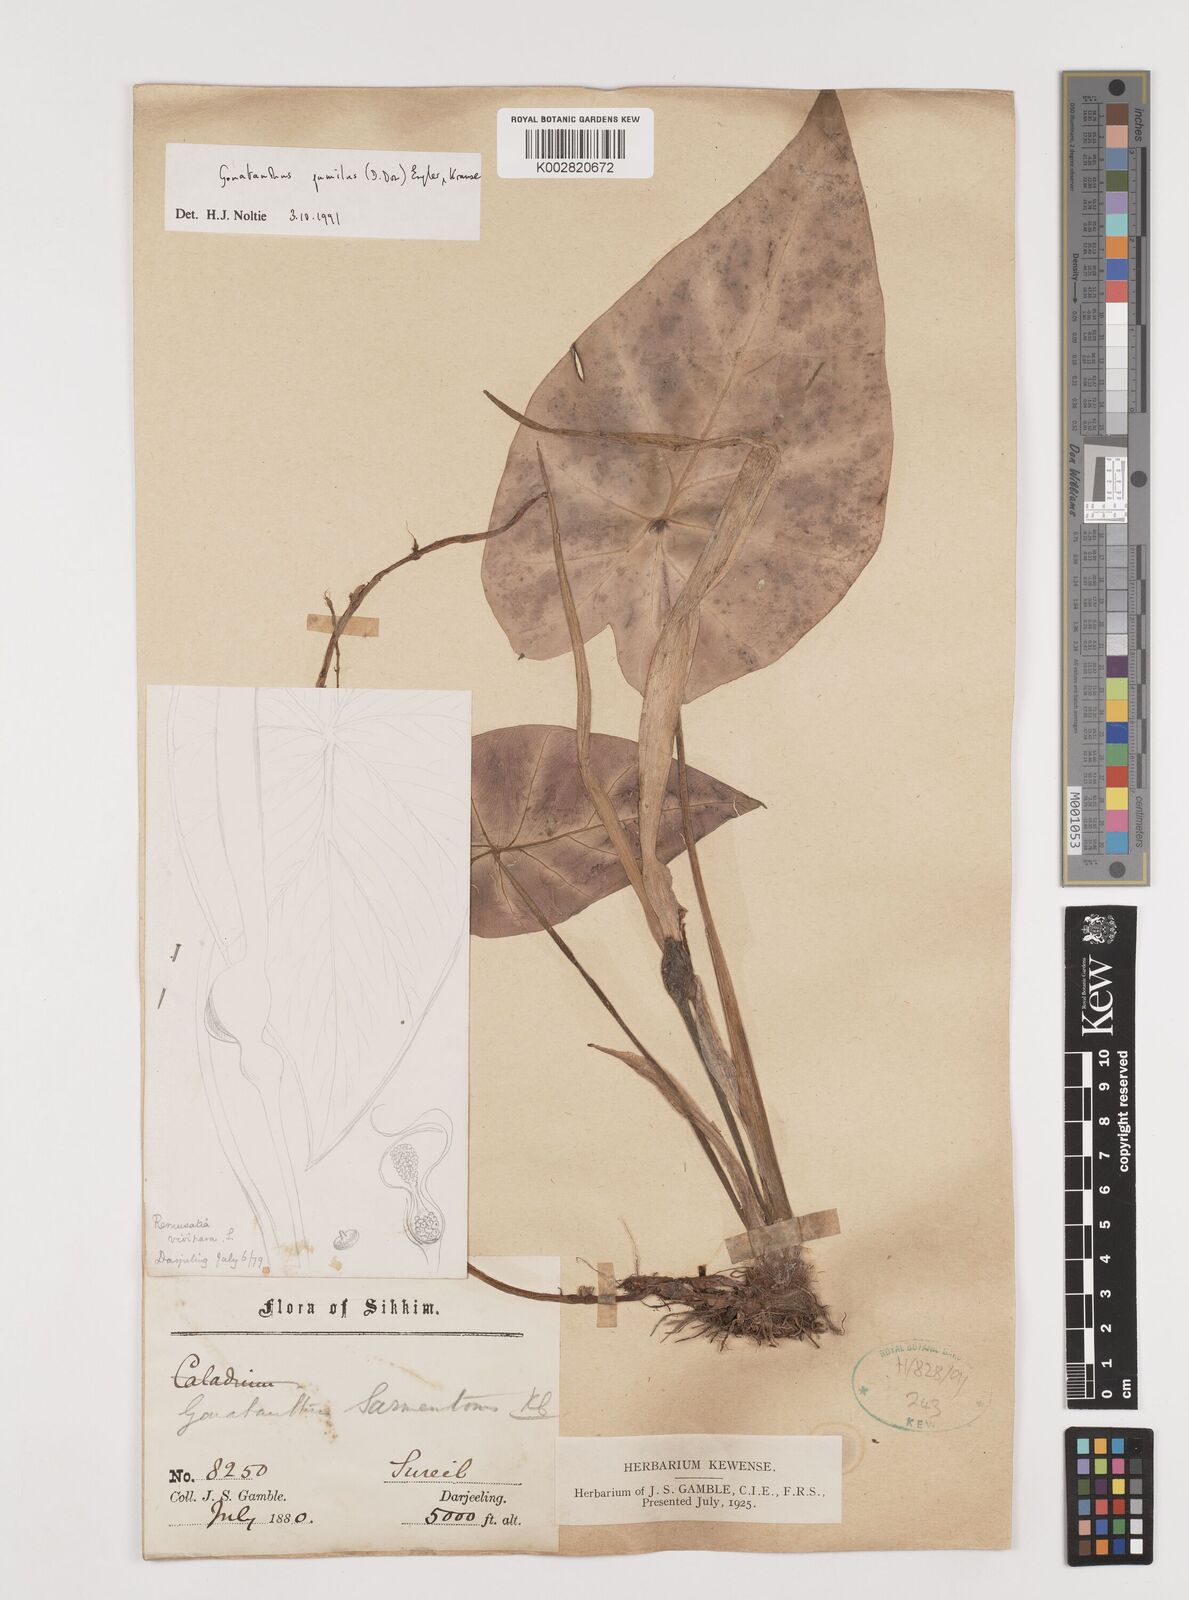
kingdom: Plantae
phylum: Tracheophyta
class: Liliopsida
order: Alismatales
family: Araceae
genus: Remusatia
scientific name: Remusatia pumila
